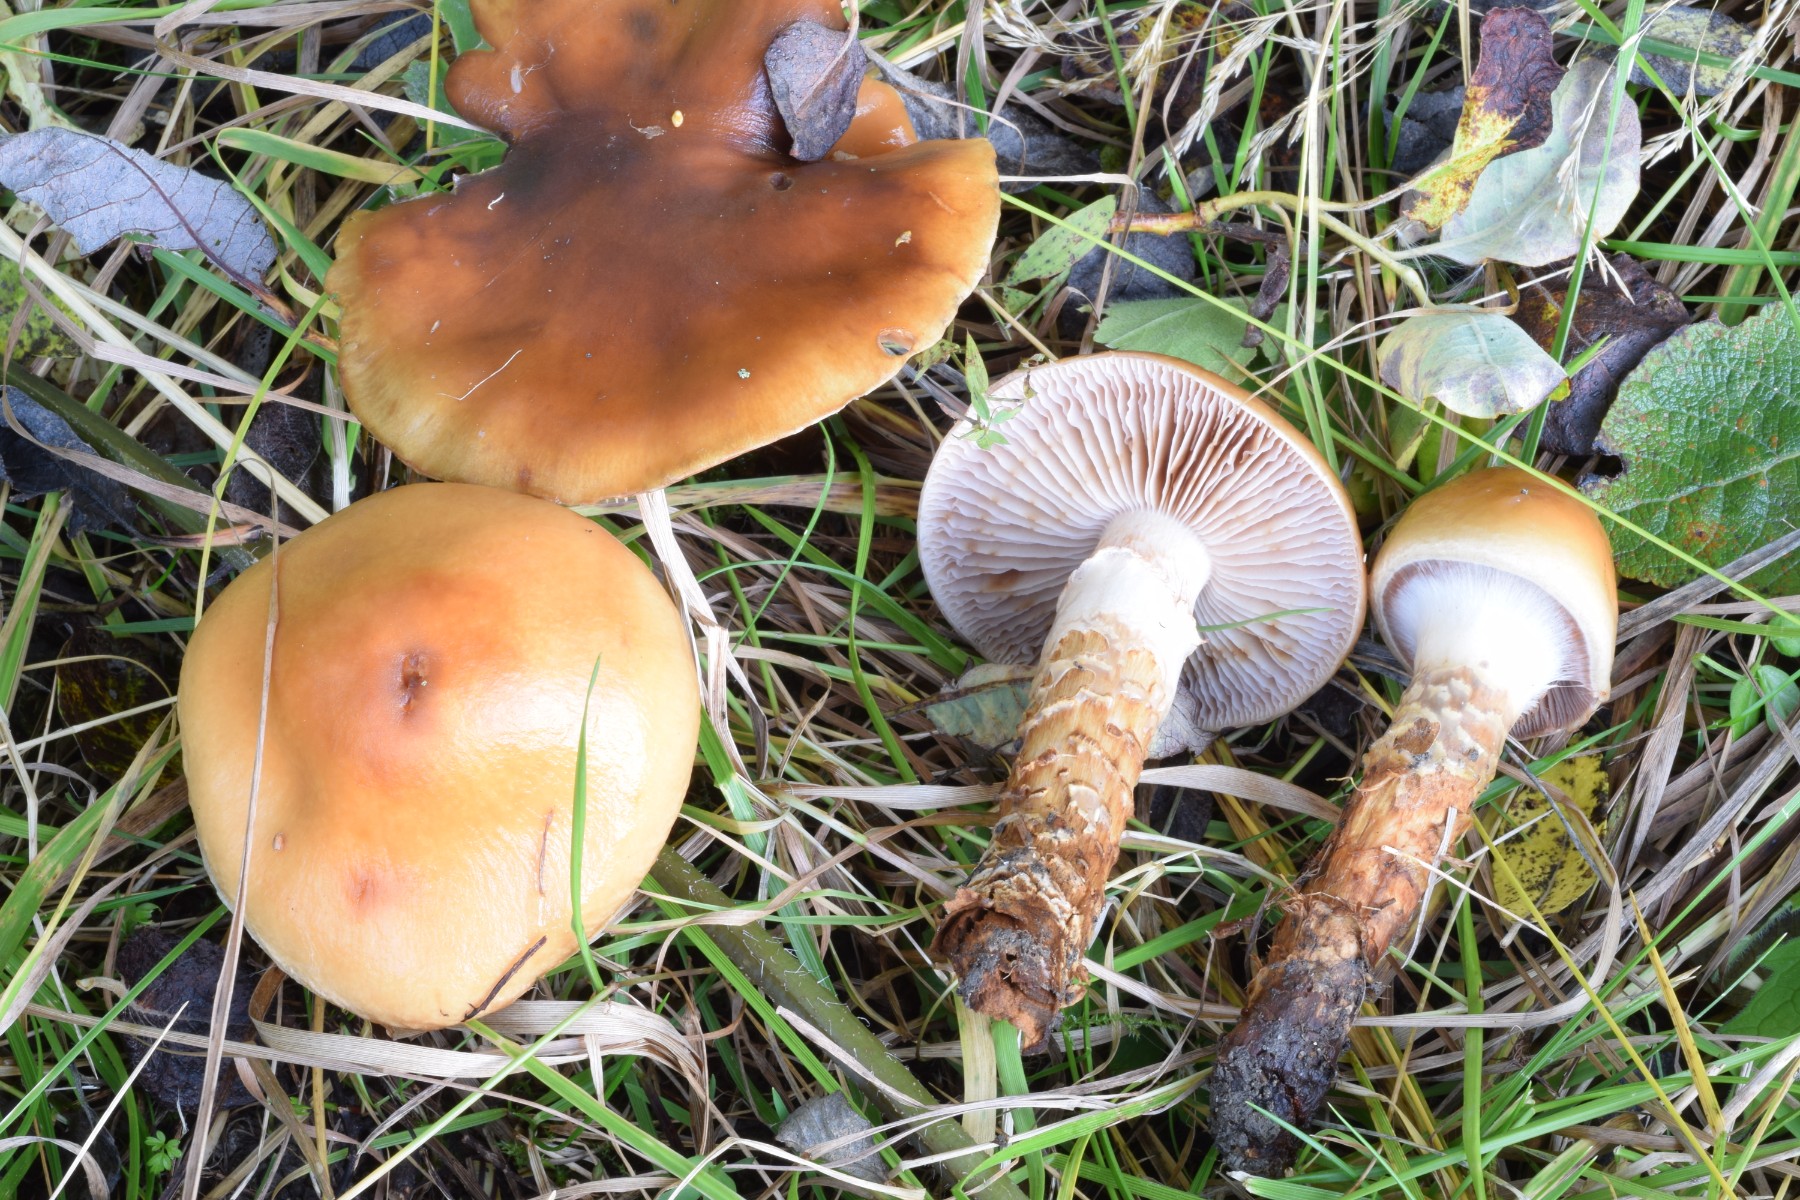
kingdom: Fungi
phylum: Basidiomycota
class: Agaricomycetes
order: Agaricales
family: Cortinariaceae
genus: Cortinarius
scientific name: Cortinarius trivialis
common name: brunslimet slørhat
